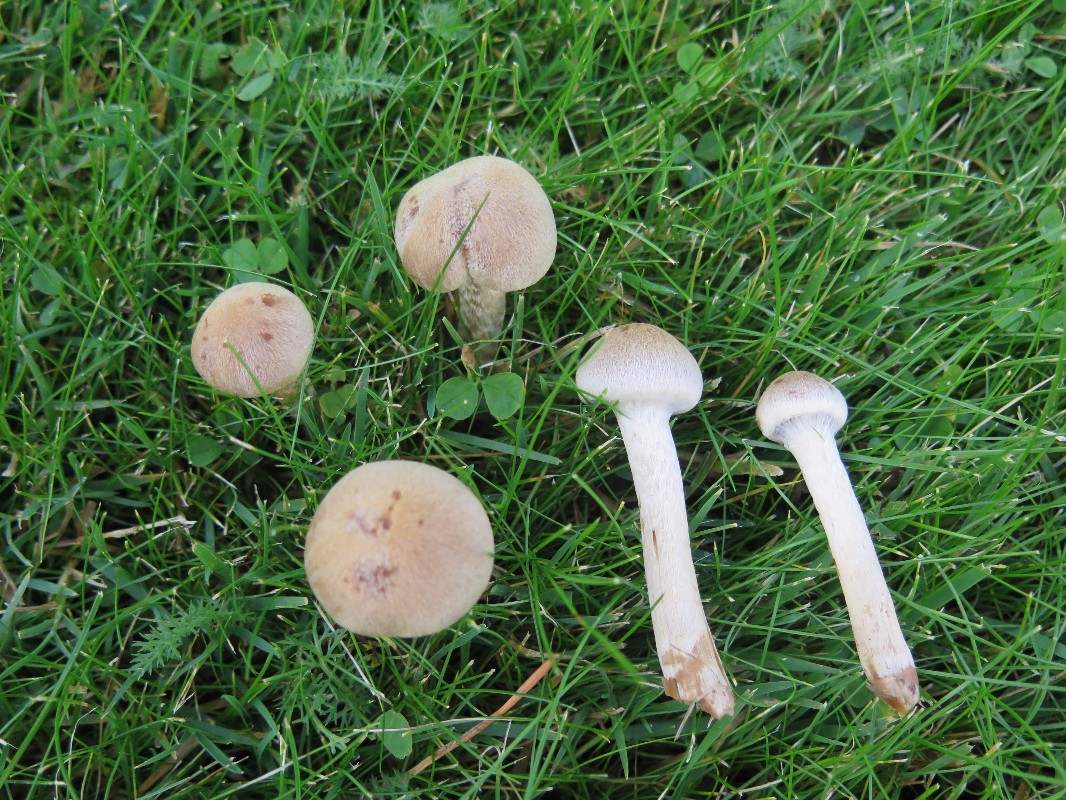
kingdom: Fungi
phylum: Basidiomycota
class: Agaricomycetes
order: Agaricales
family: Psathyrellaceae
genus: Lacrymaria
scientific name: Lacrymaria lacrymabunda
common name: grædende mørkhat
